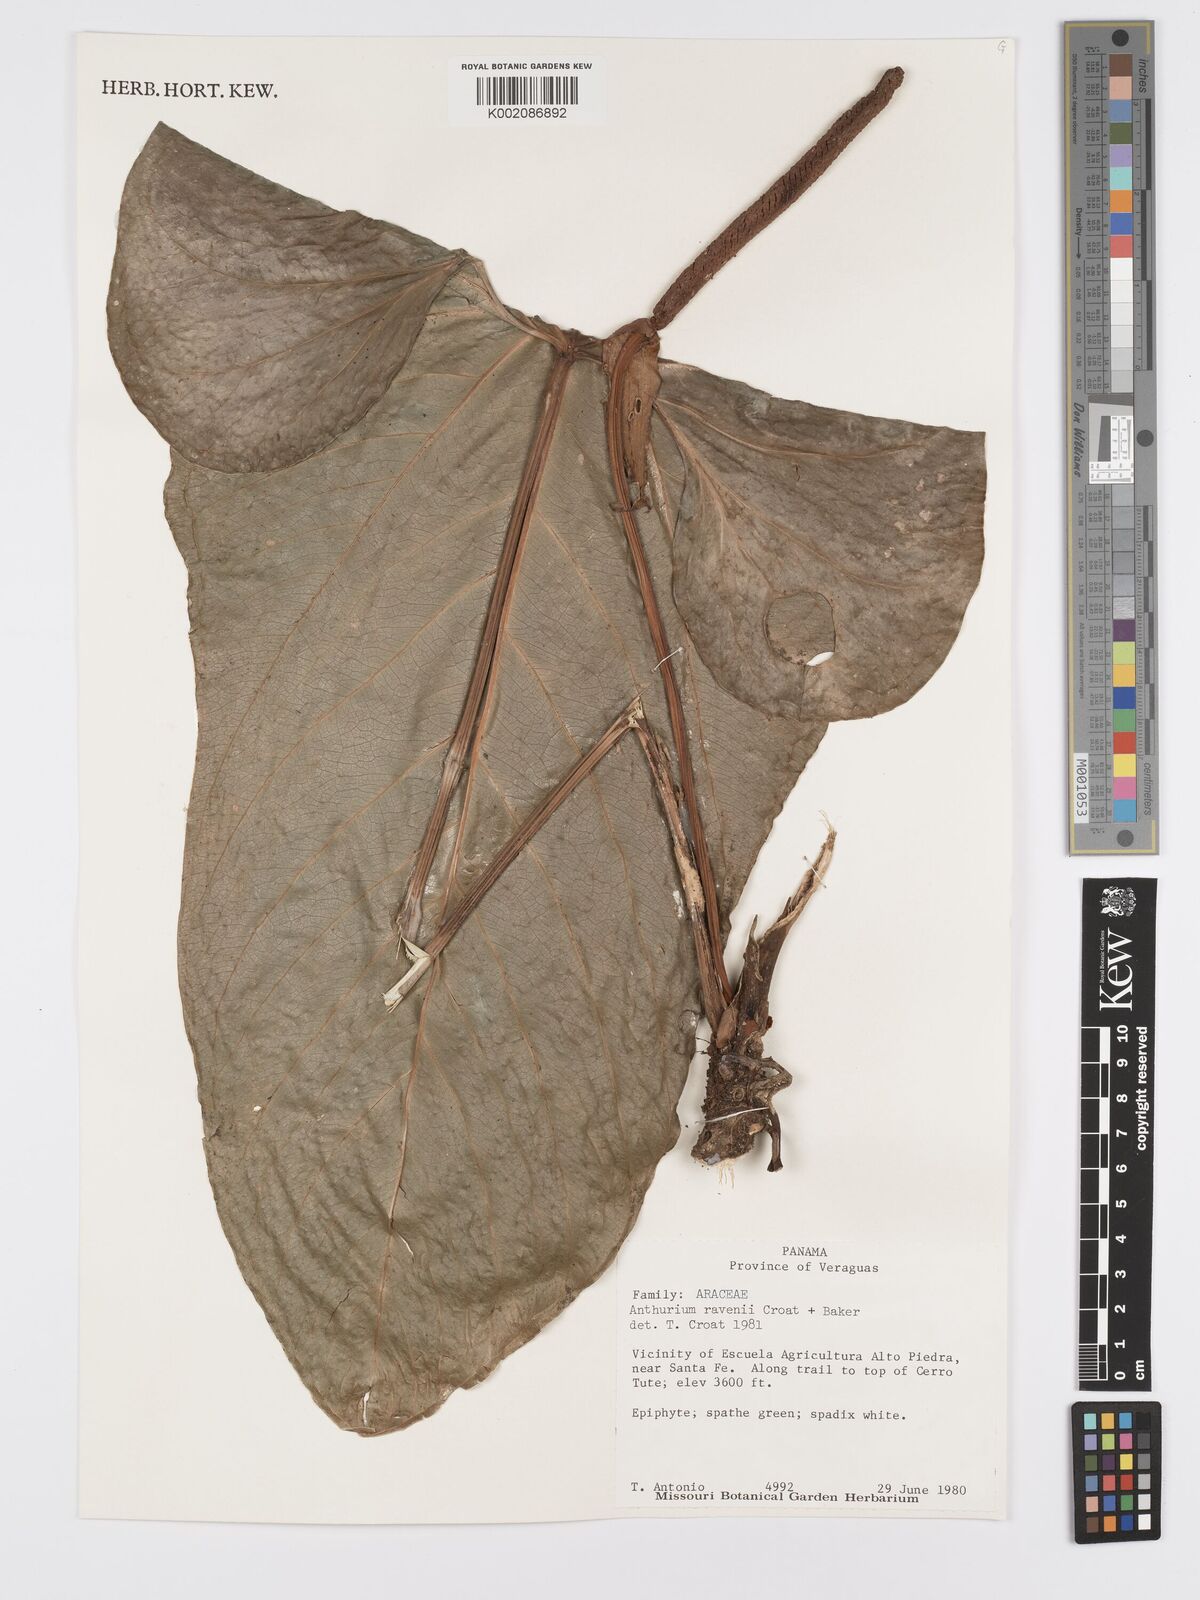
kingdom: Plantae
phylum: Tracheophyta
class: Liliopsida
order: Alismatales
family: Araceae
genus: Anthurium
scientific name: Anthurium ravenii
